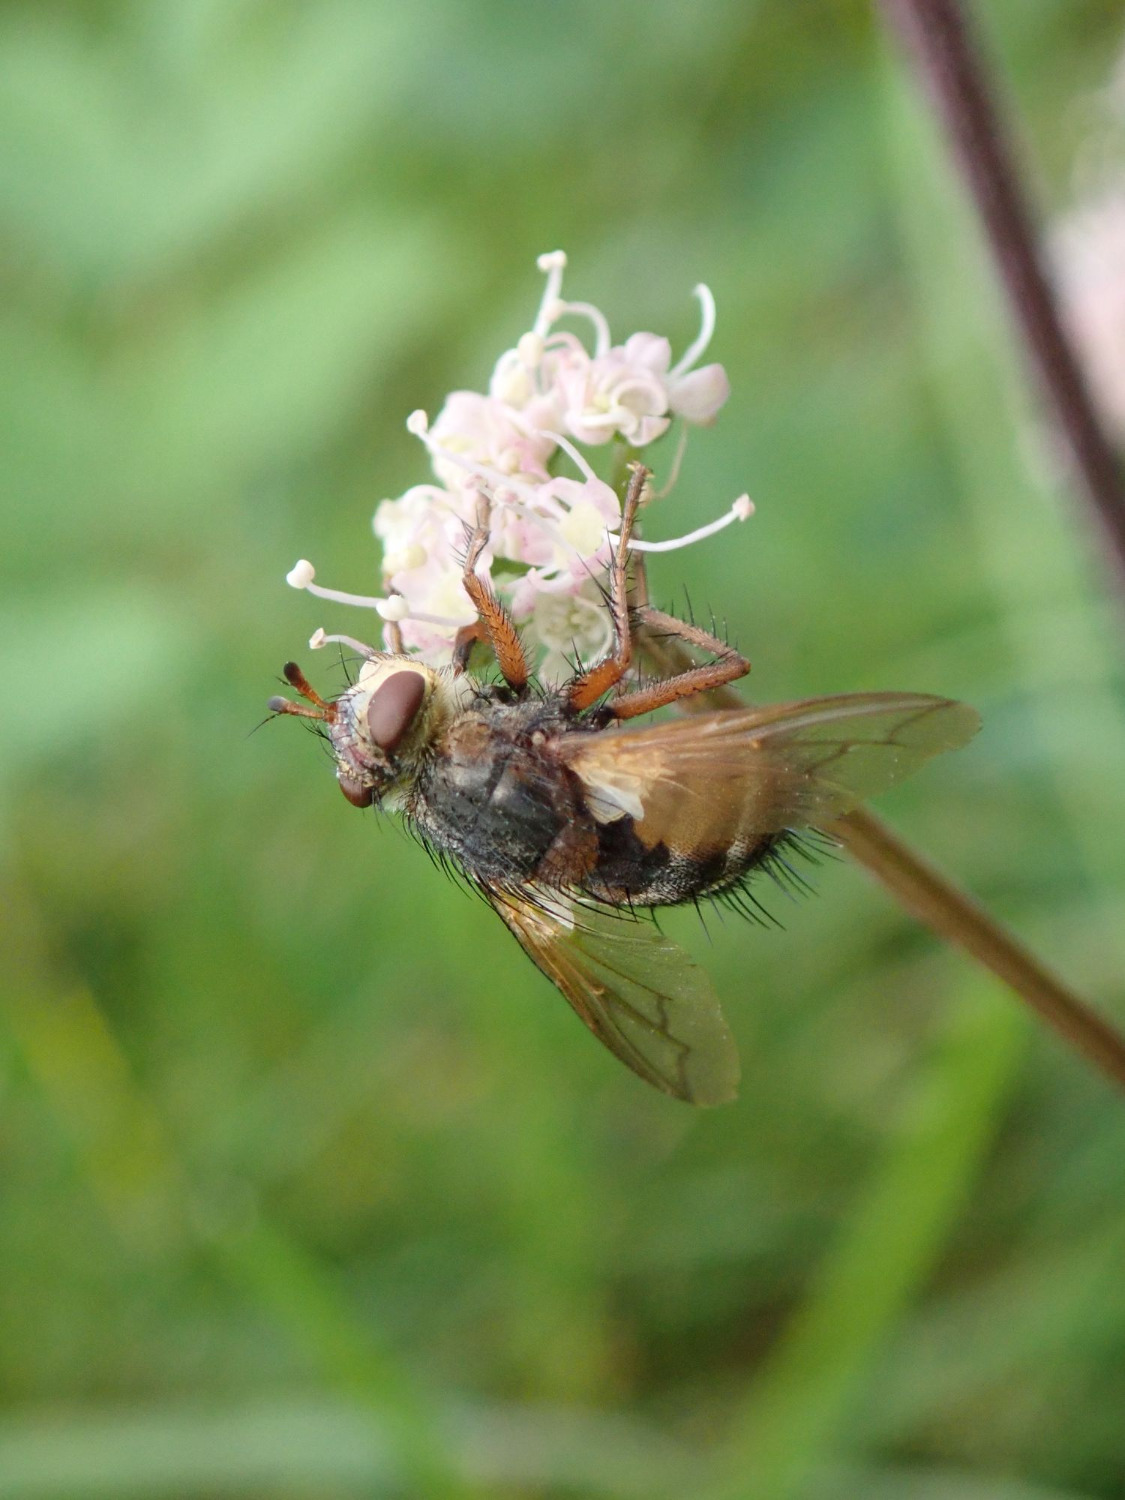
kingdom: Animalia
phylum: Arthropoda
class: Insecta
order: Diptera
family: Tachinidae
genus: Tachina
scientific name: Tachina fera
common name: Mellemfluen oskar
